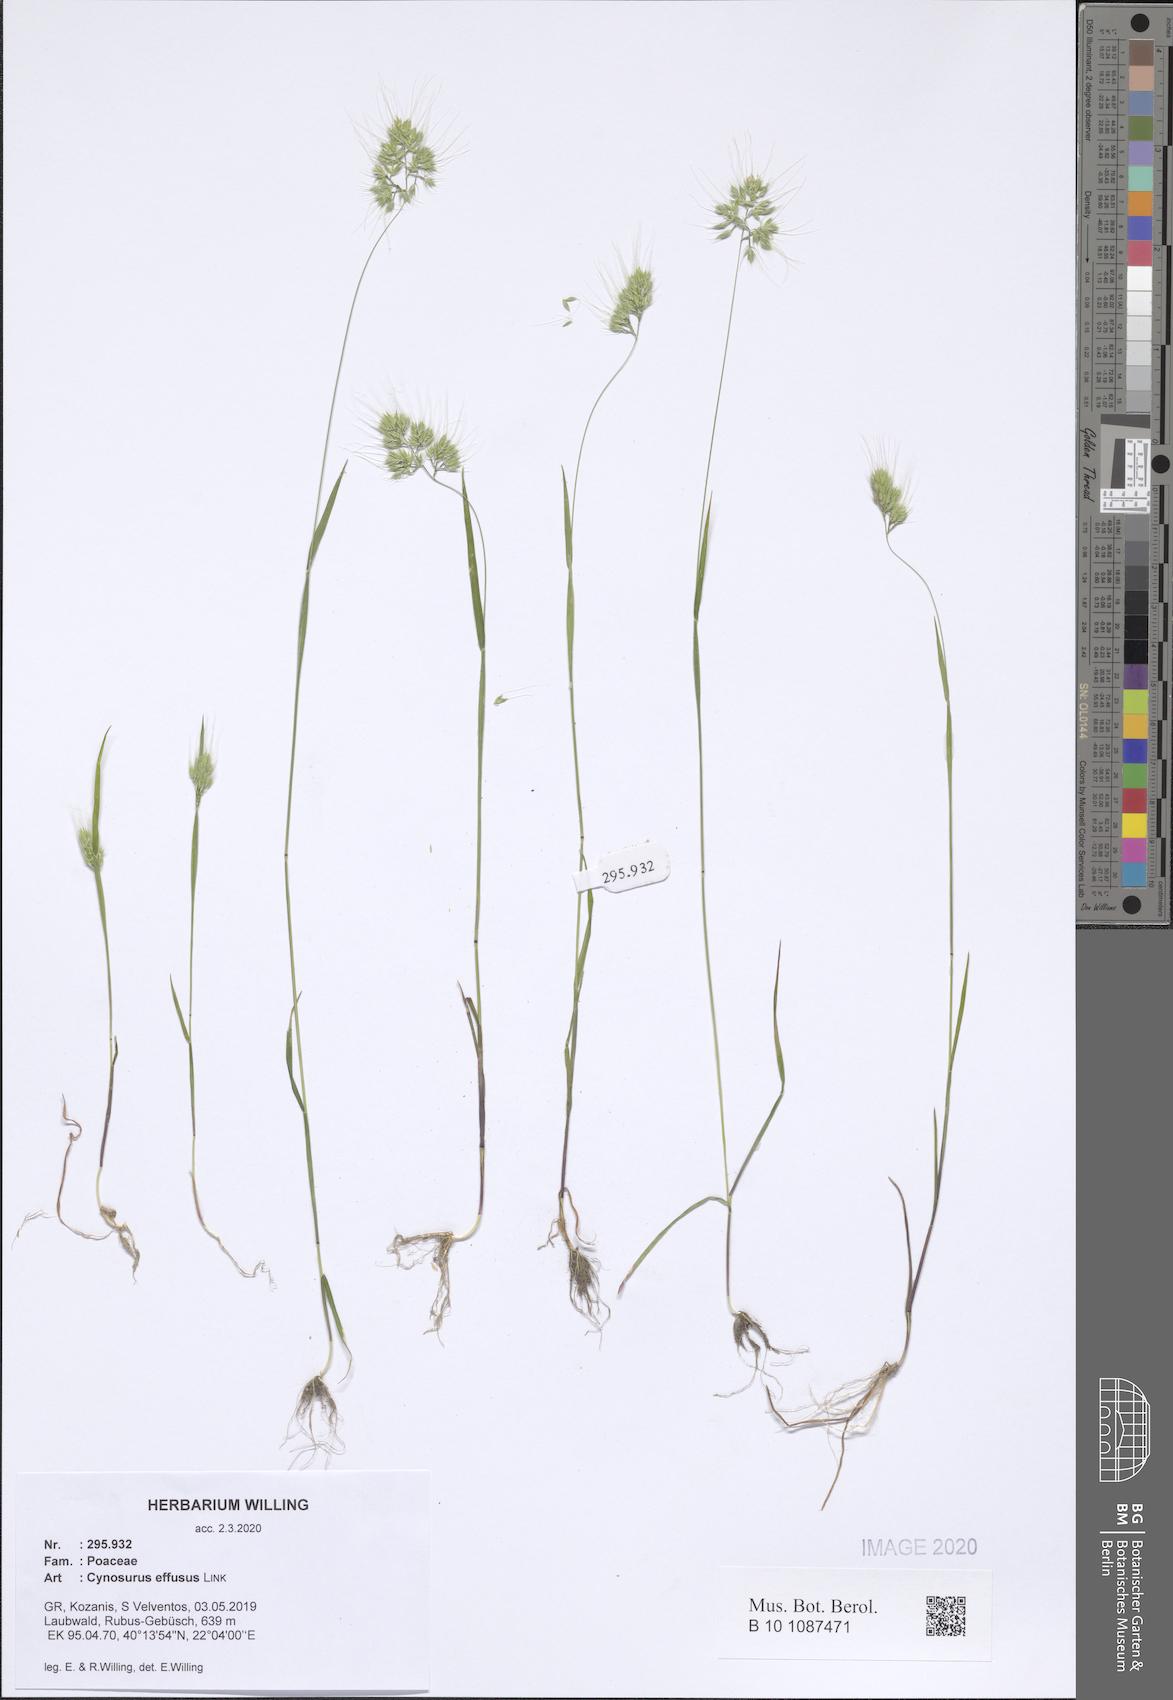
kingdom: Plantae
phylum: Tracheophyta
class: Liliopsida
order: Poales
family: Poaceae
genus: Cynosurus
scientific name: Cynosurus effusus
